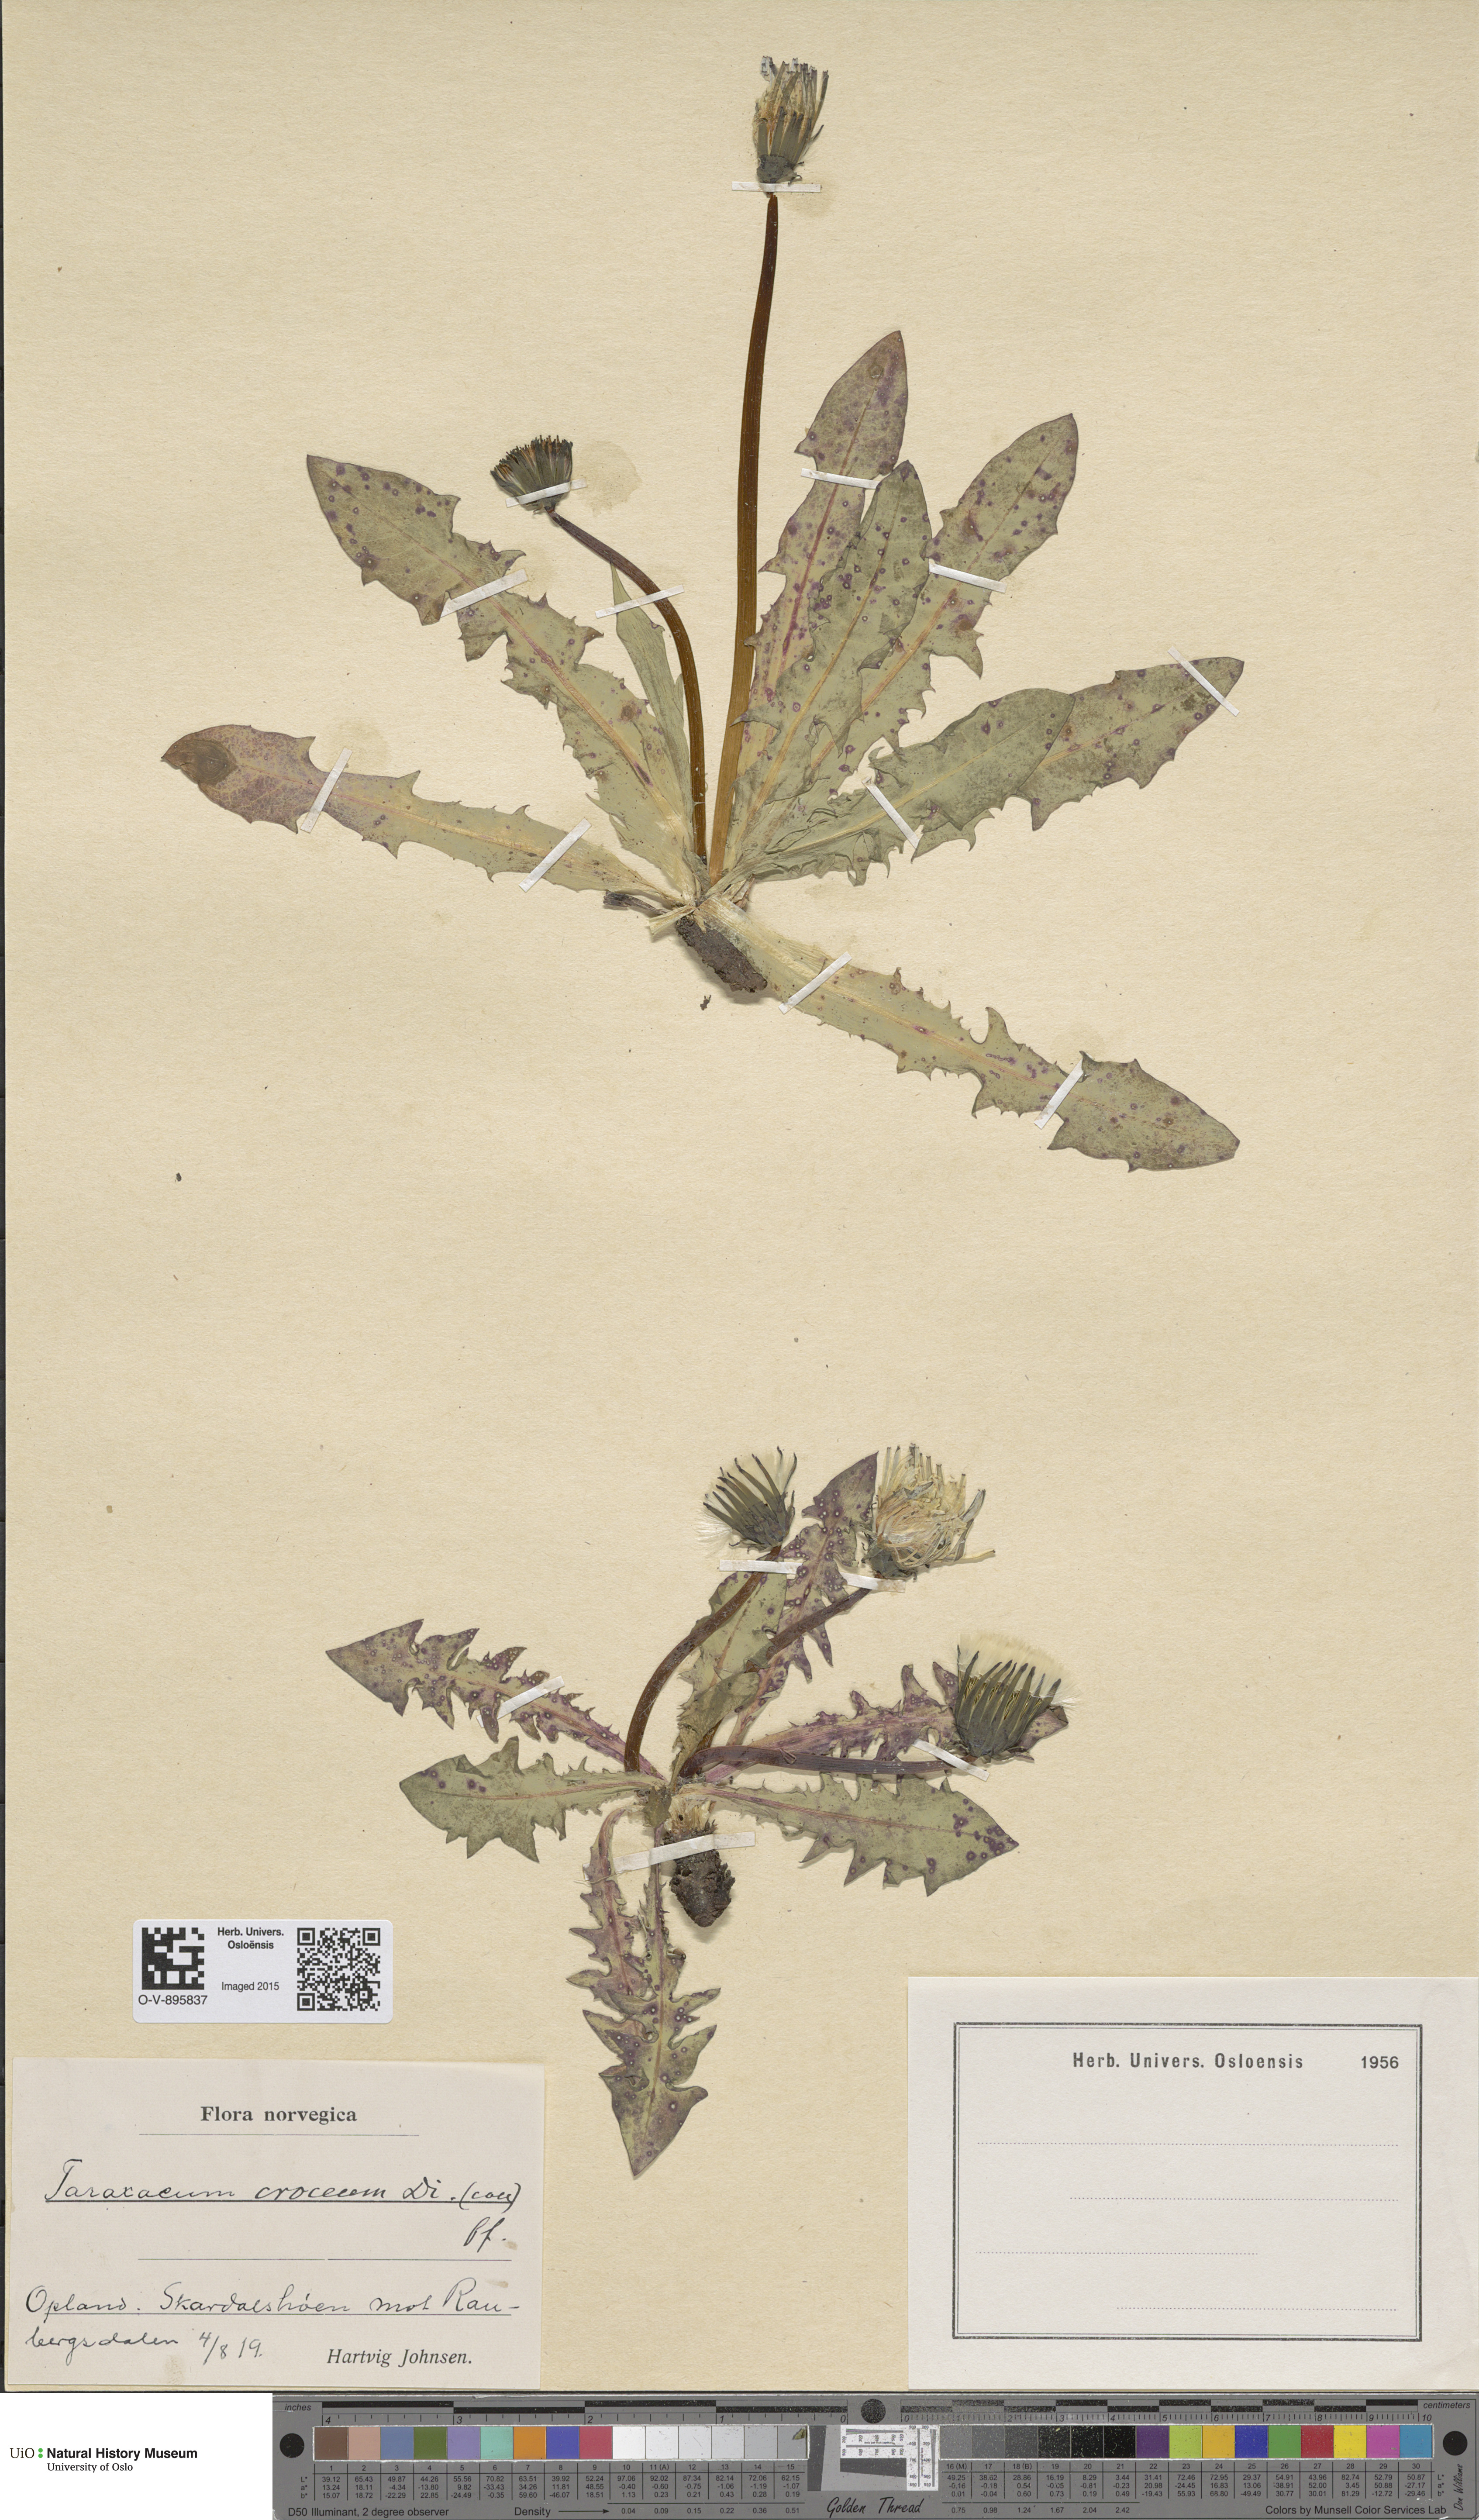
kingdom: Plantae
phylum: Tracheophyta
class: Magnoliopsida
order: Asterales
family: Asteraceae
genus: Taraxacum
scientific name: Taraxacum croceum
